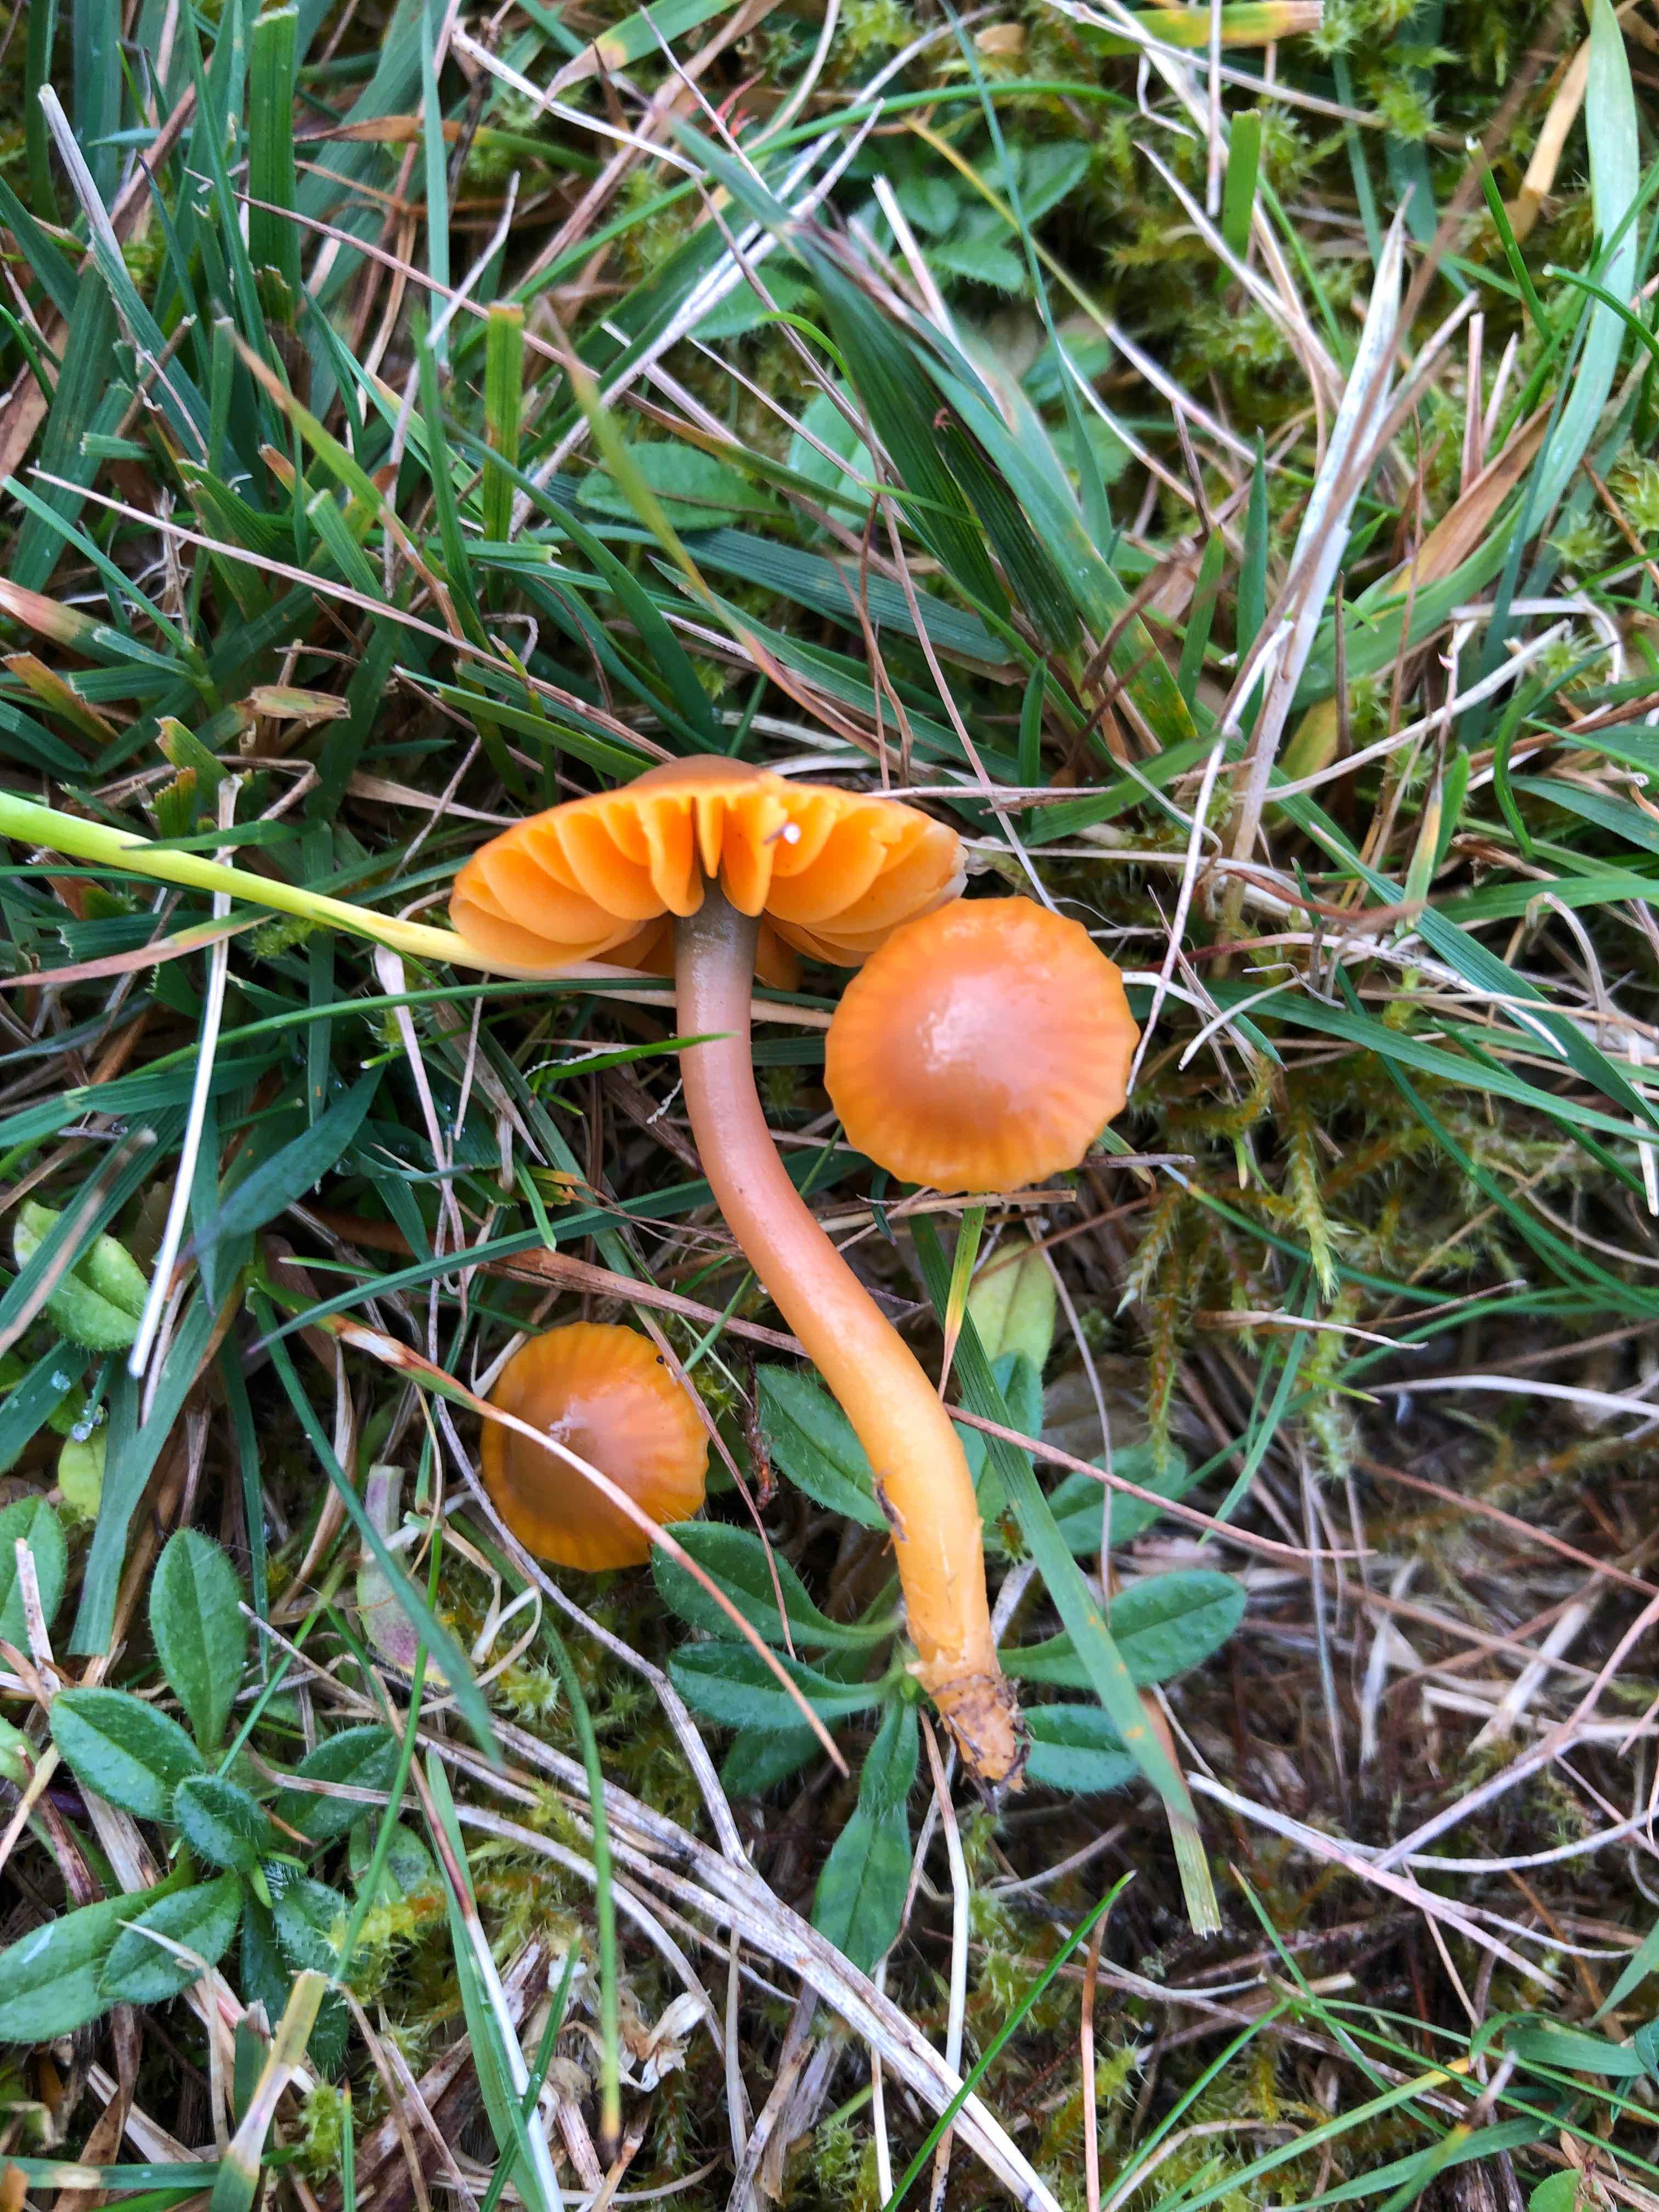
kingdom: Fungi
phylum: Basidiomycota
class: Agaricomycetes
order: Agaricales
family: Hygrophoraceae
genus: Gliophorus
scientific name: Gliophorus psittacinus
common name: papegøje-vokshat
